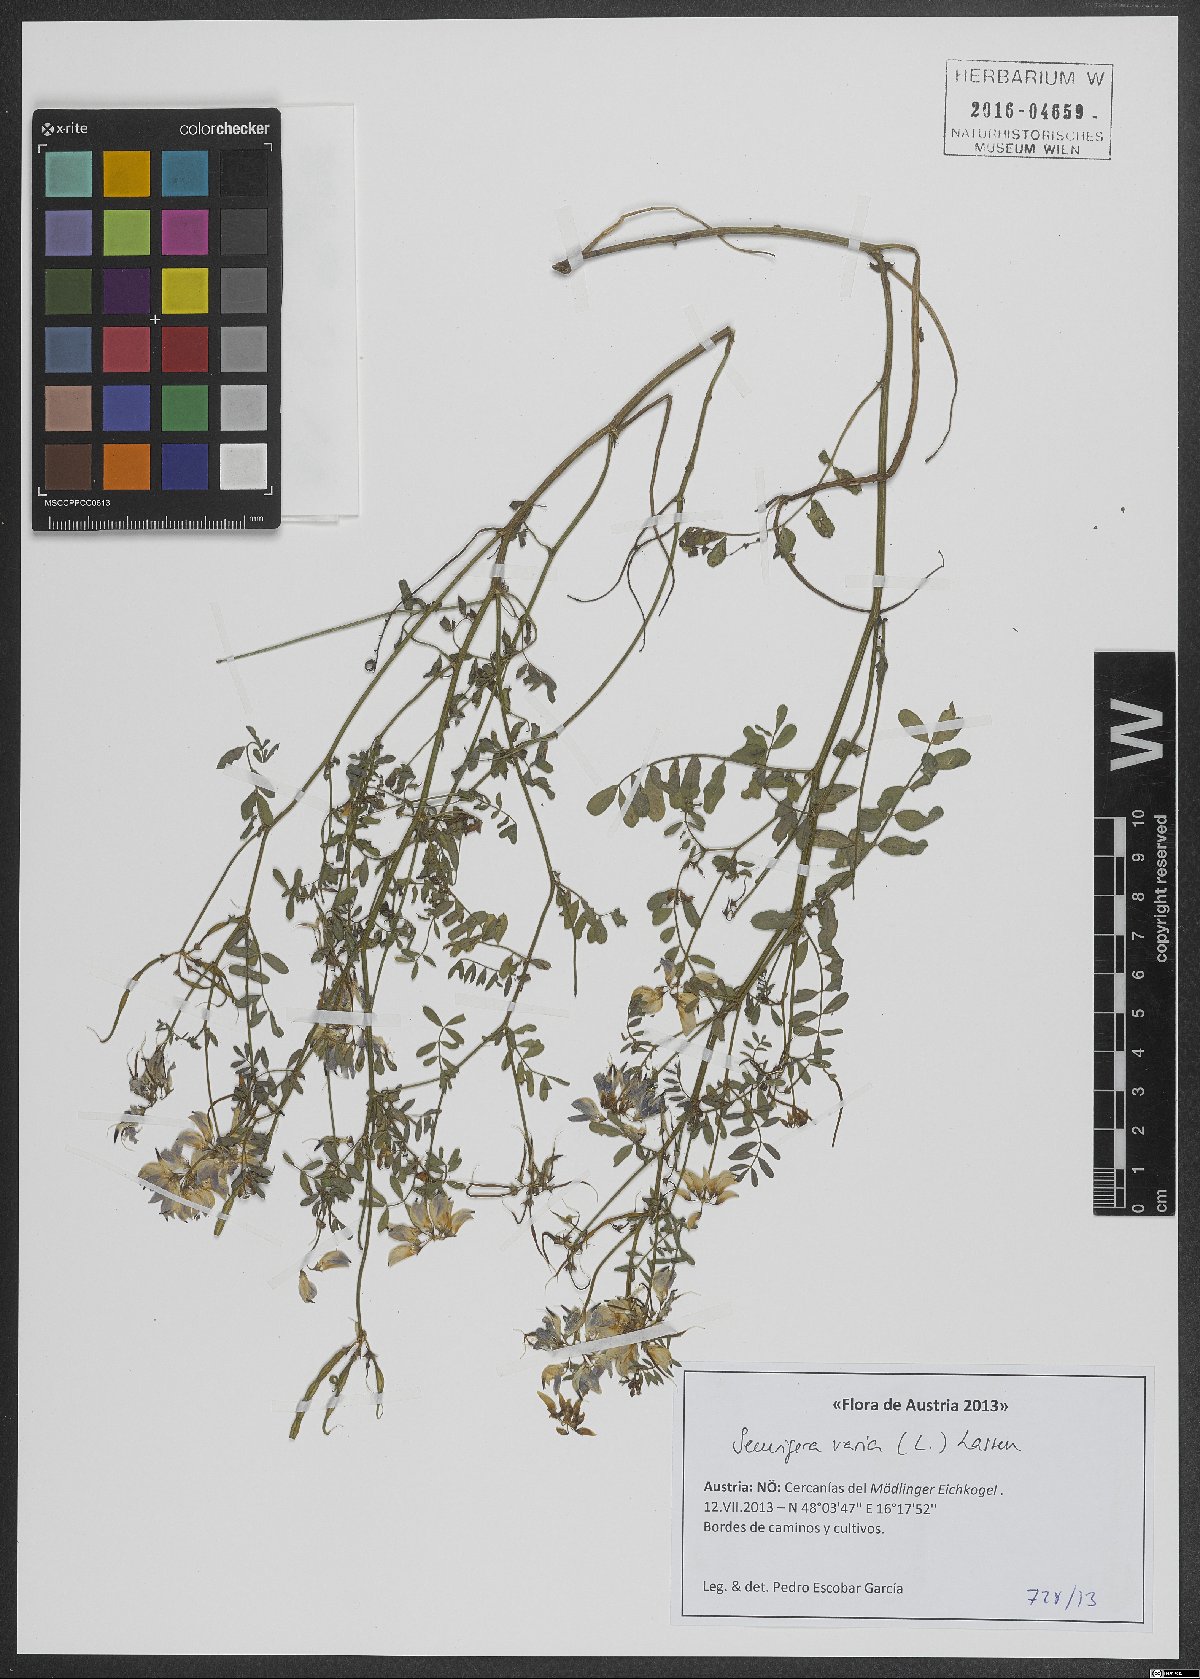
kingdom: Plantae
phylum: Tracheophyta
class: Magnoliopsida
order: Fabales
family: Fabaceae
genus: Coronilla
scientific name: Coronilla varia
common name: Crownvetch
